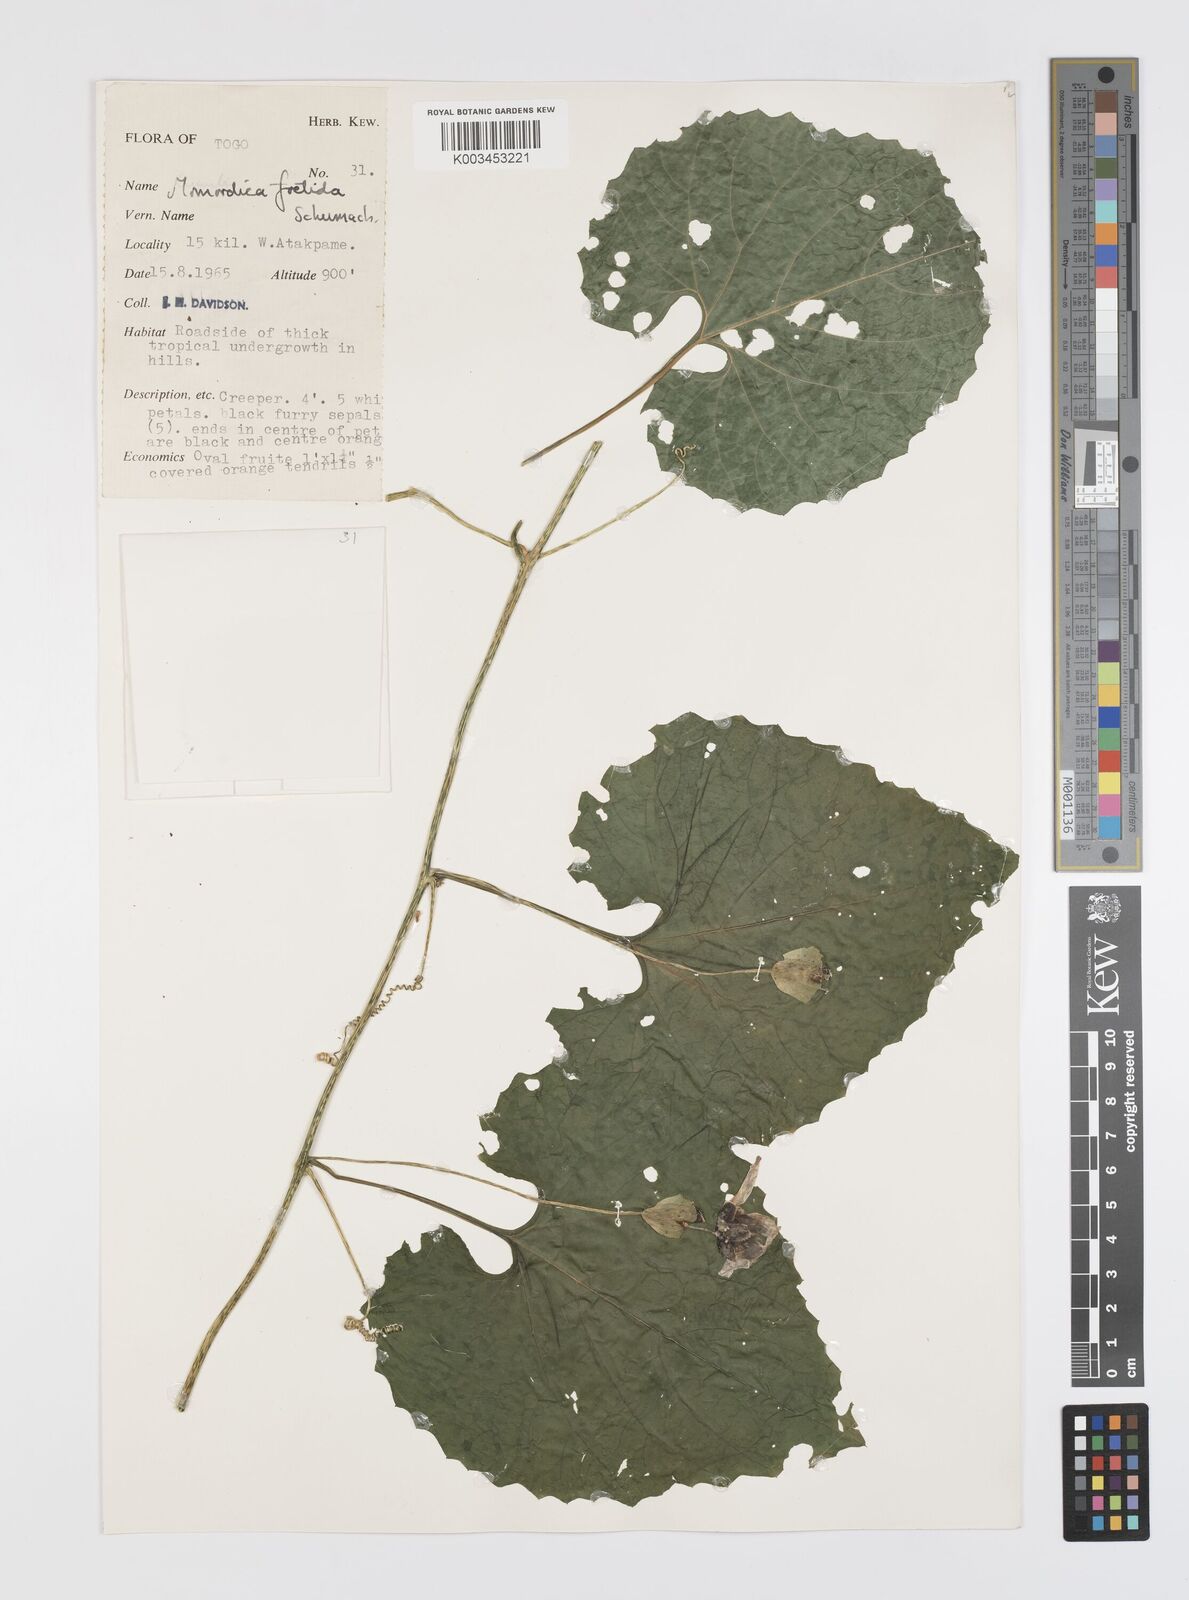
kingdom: Plantae
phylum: Tracheophyta
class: Magnoliopsida
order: Cucurbitales
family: Cucurbitaceae
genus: Momordica
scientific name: Momordica foetida
